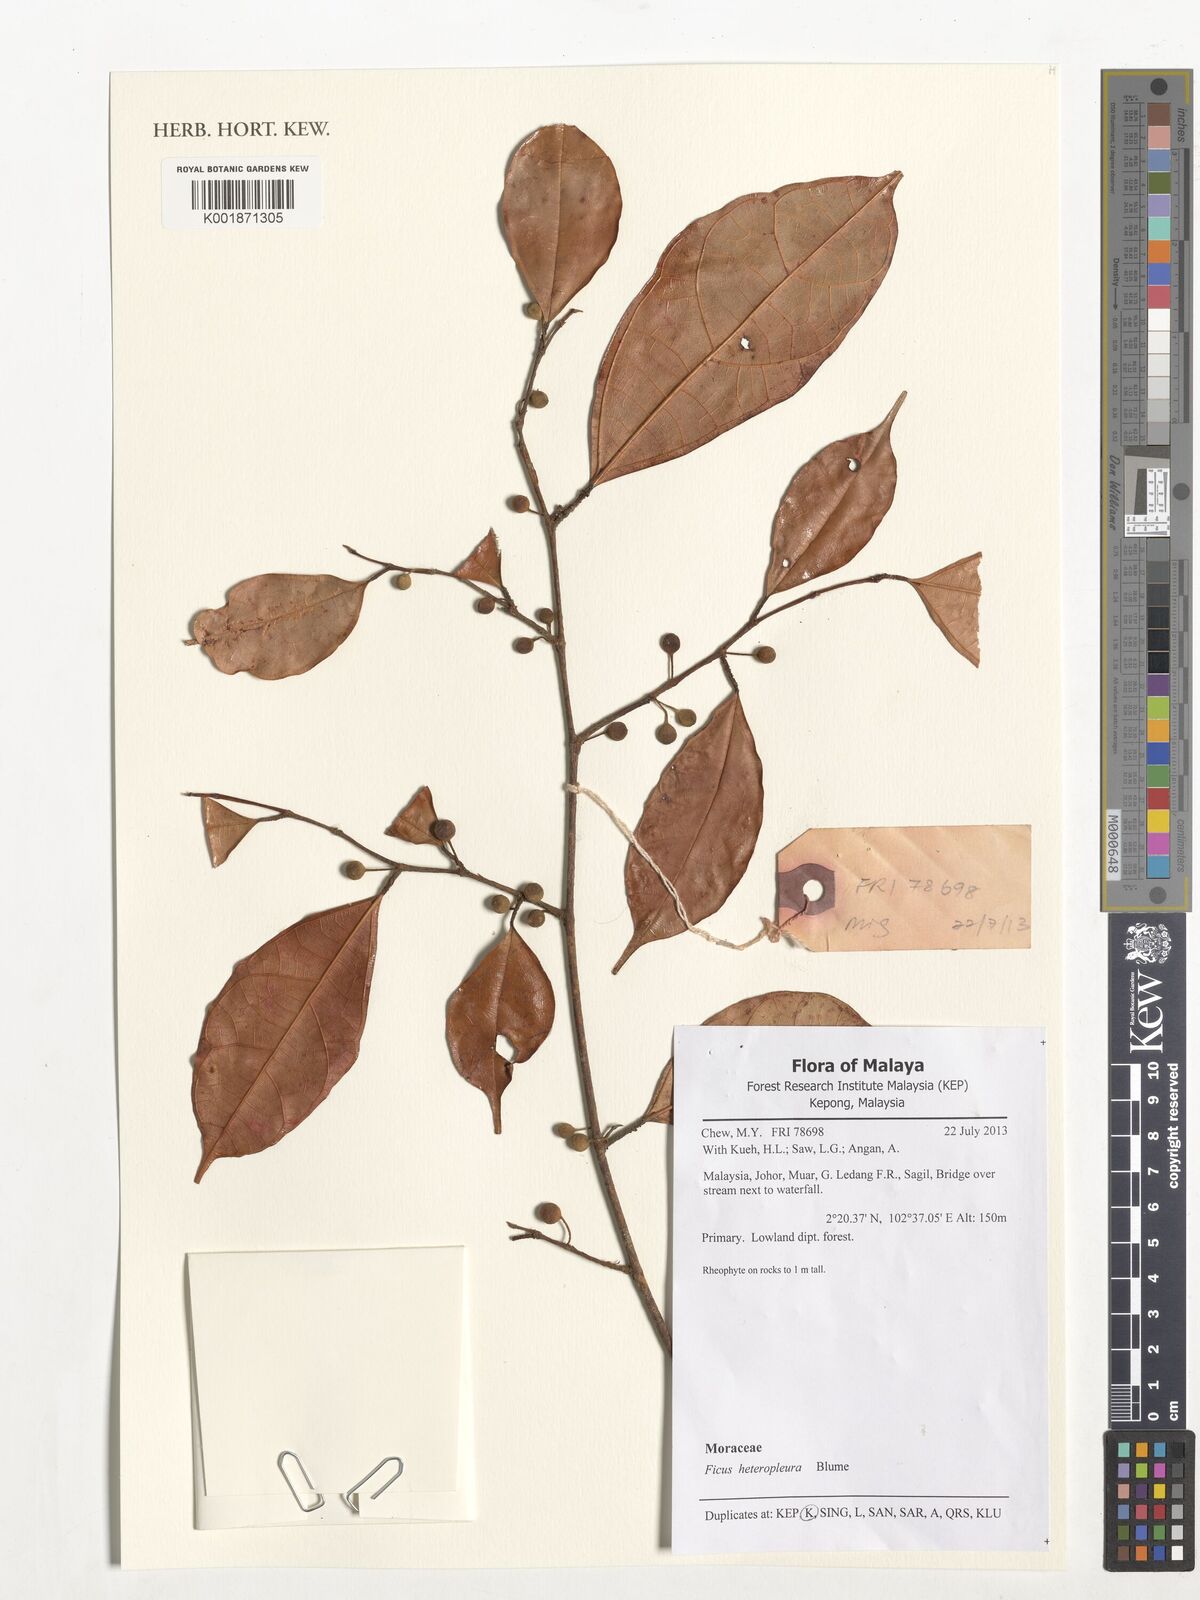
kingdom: Plantae
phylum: Tracheophyta
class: Magnoliopsida
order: Rosales
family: Moraceae
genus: Ficus
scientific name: Ficus heteropleura
